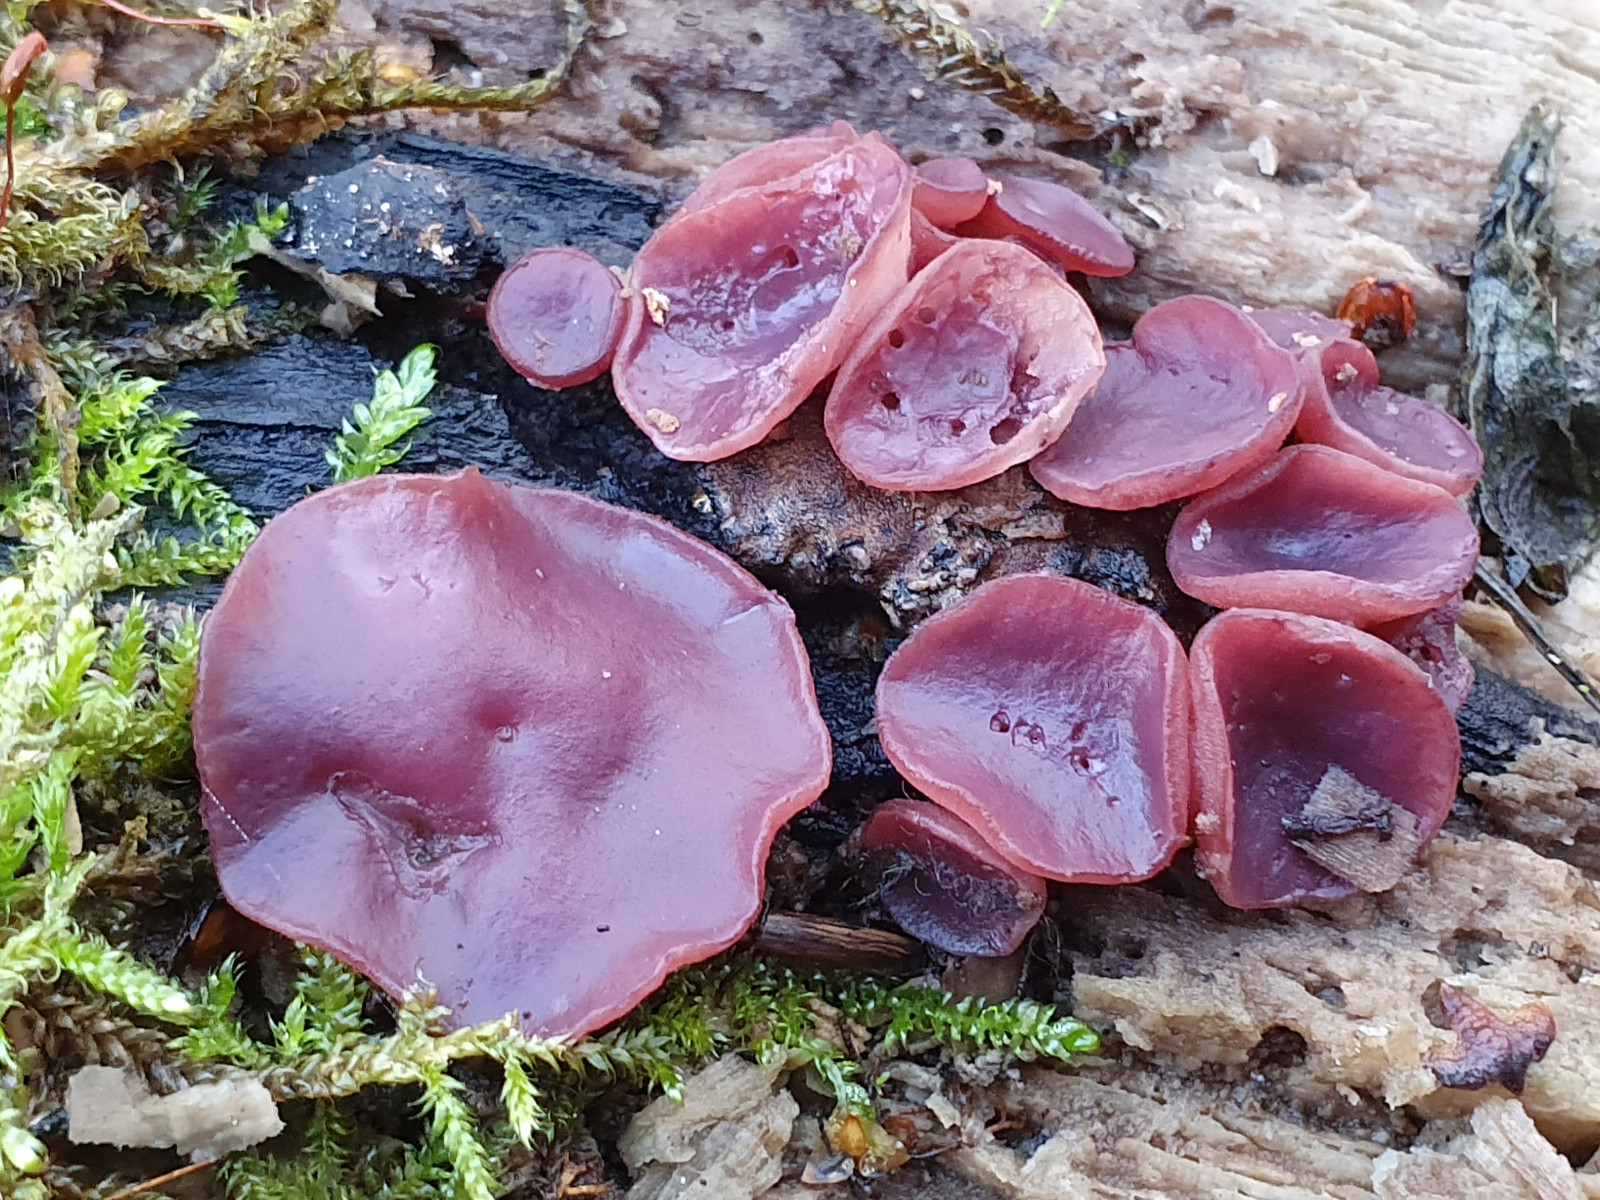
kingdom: Fungi
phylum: Ascomycota
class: Leotiomycetes
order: Helotiales
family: Gelatinodiscaceae
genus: Ascocoryne
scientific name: Ascocoryne cylichnium
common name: stor sejskive
